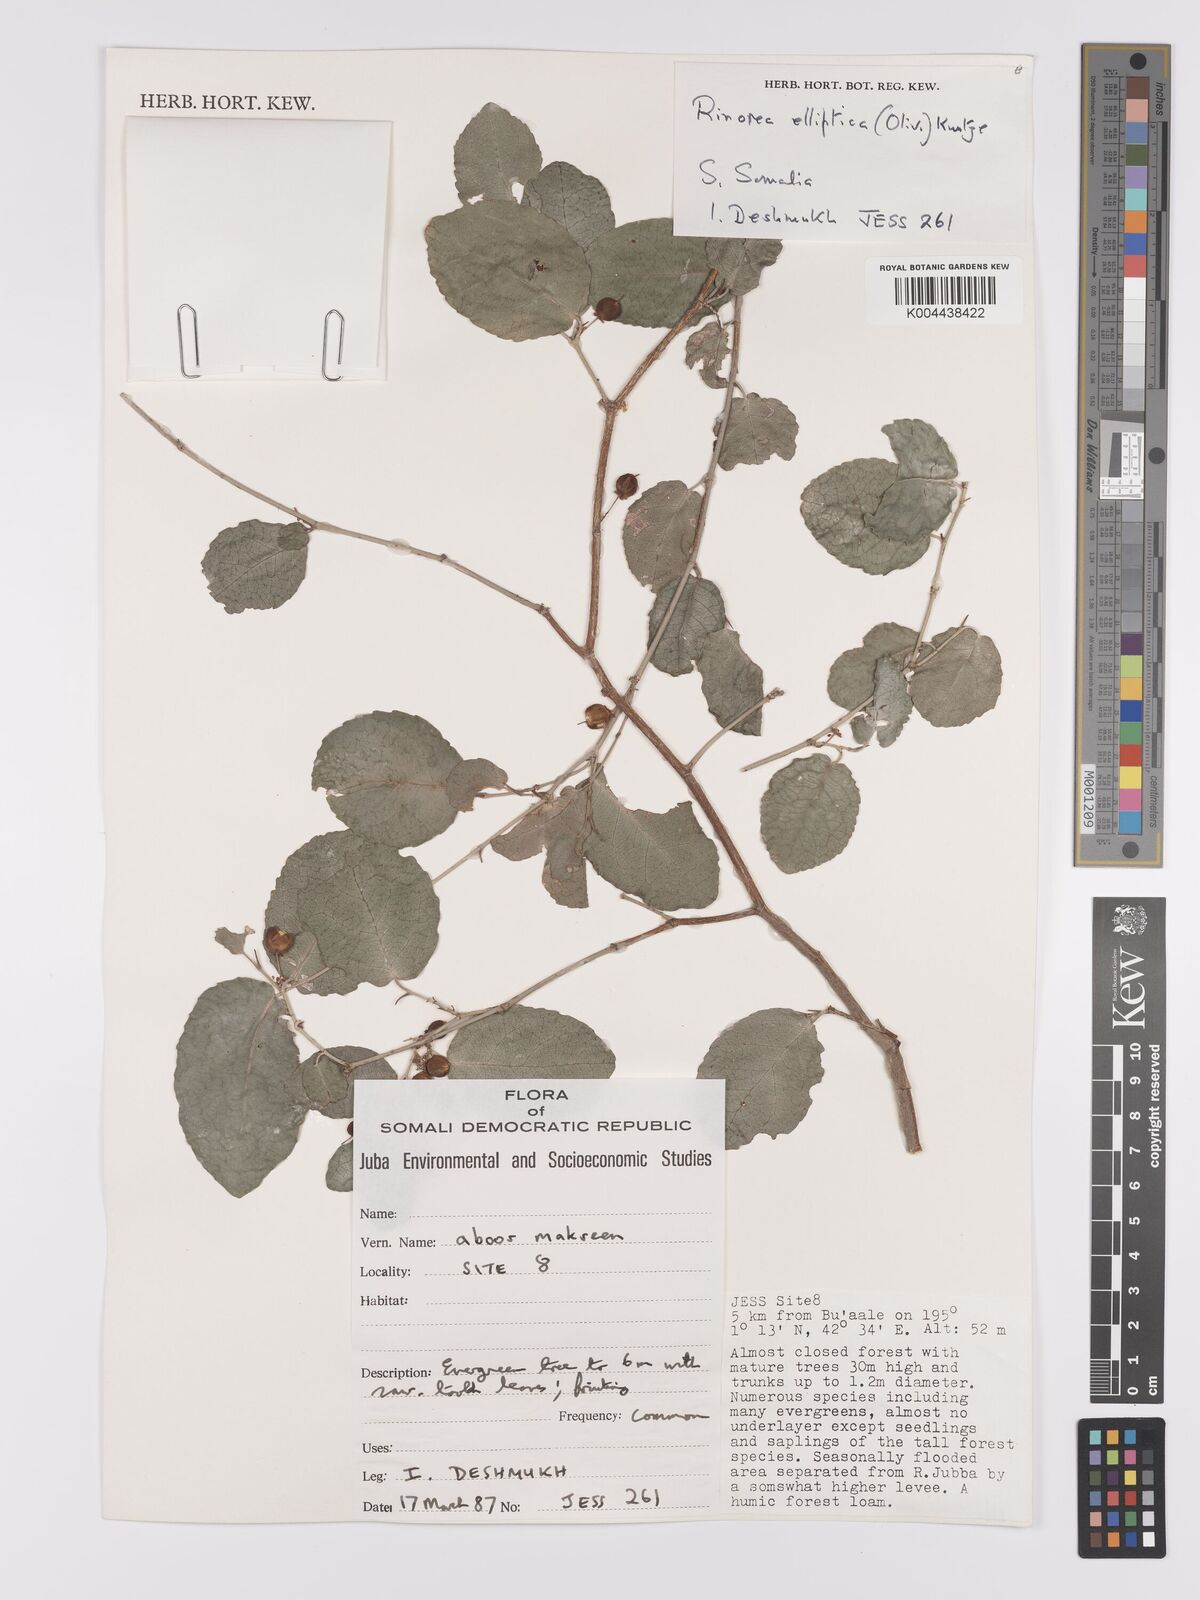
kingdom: Plantae
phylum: Tracheophyta
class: Magnoliopsida
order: Malpighiales
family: Violaceae
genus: Rinorea
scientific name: Rinorea elliptica
